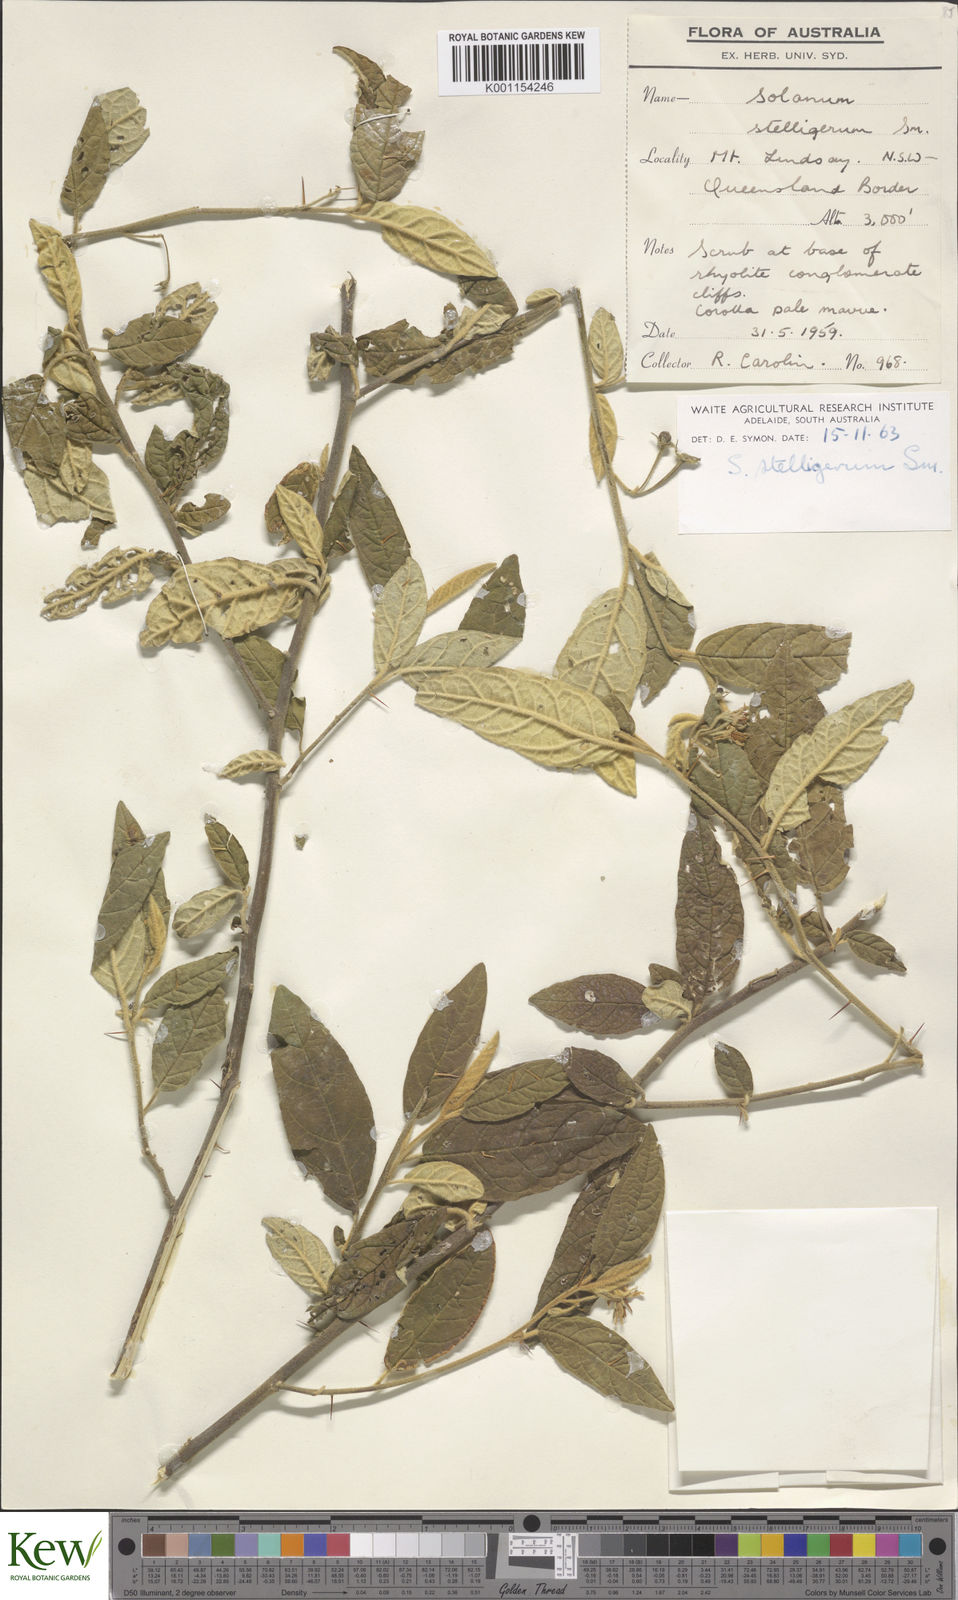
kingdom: Plantae
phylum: Tracheophyta
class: Magnoliopsida
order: Solanales
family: Solanaceae
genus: Solanum
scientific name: Solanum stelligerum
